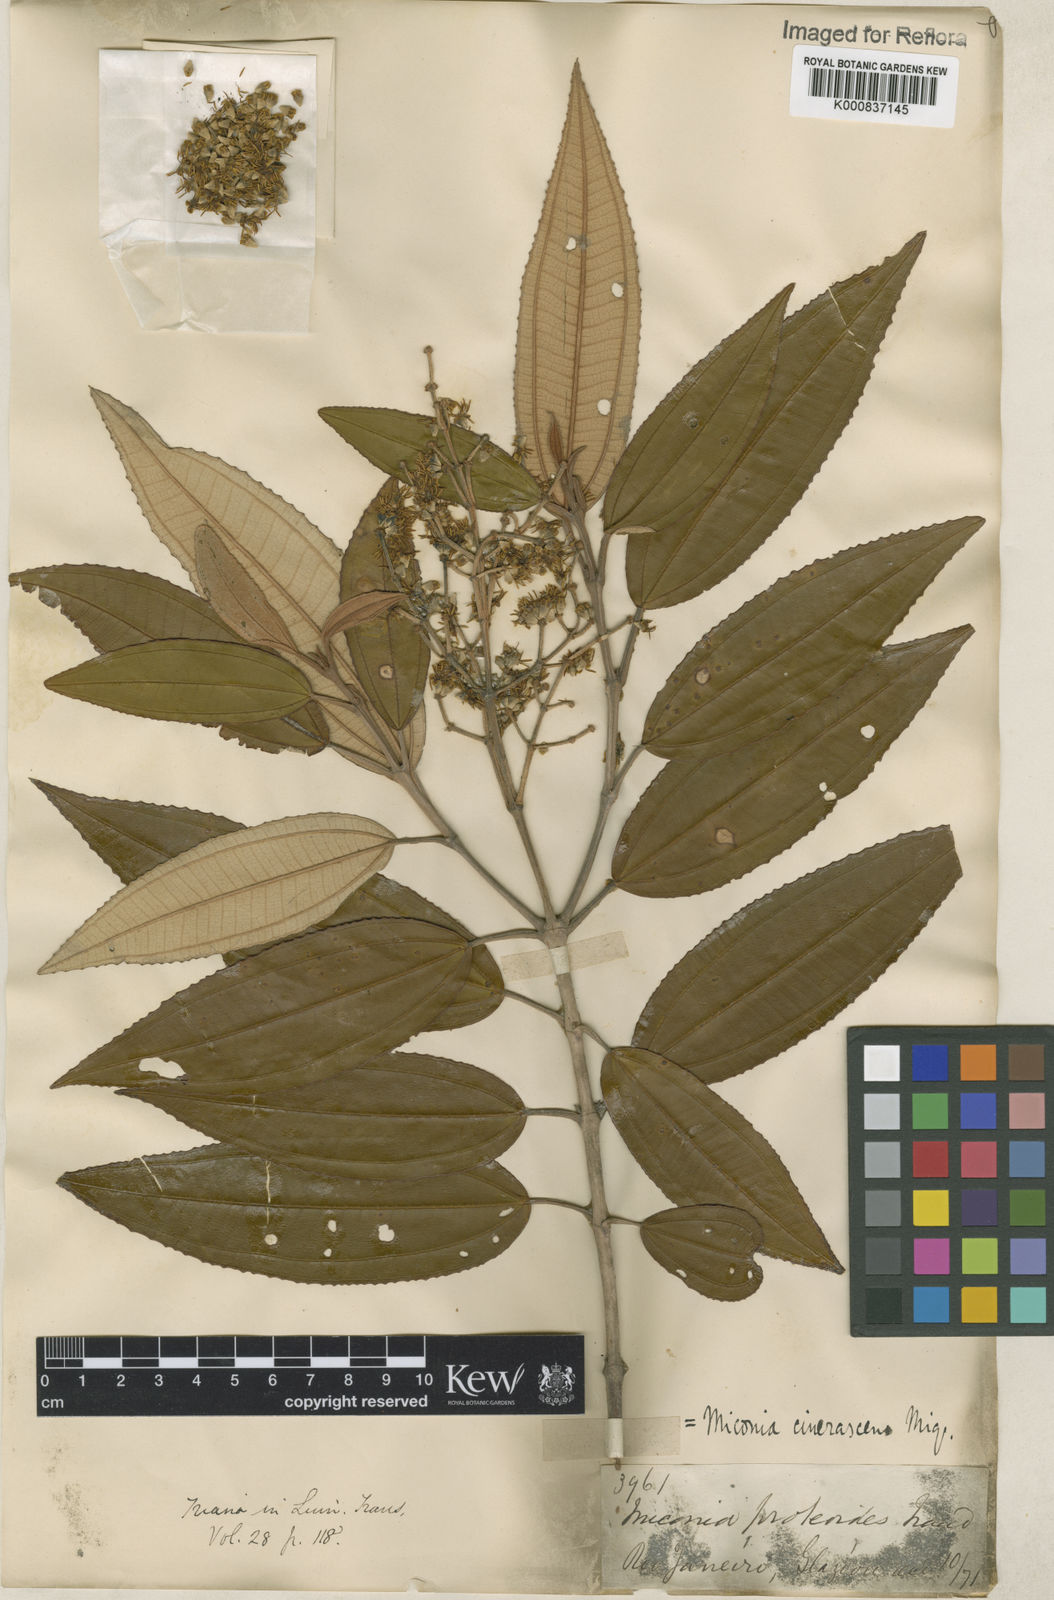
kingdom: Plantae
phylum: Tracheophyta
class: Magnoliopsida
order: Myrtales
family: Melastomataceae
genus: Miconia
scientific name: Miconia cinerascens
